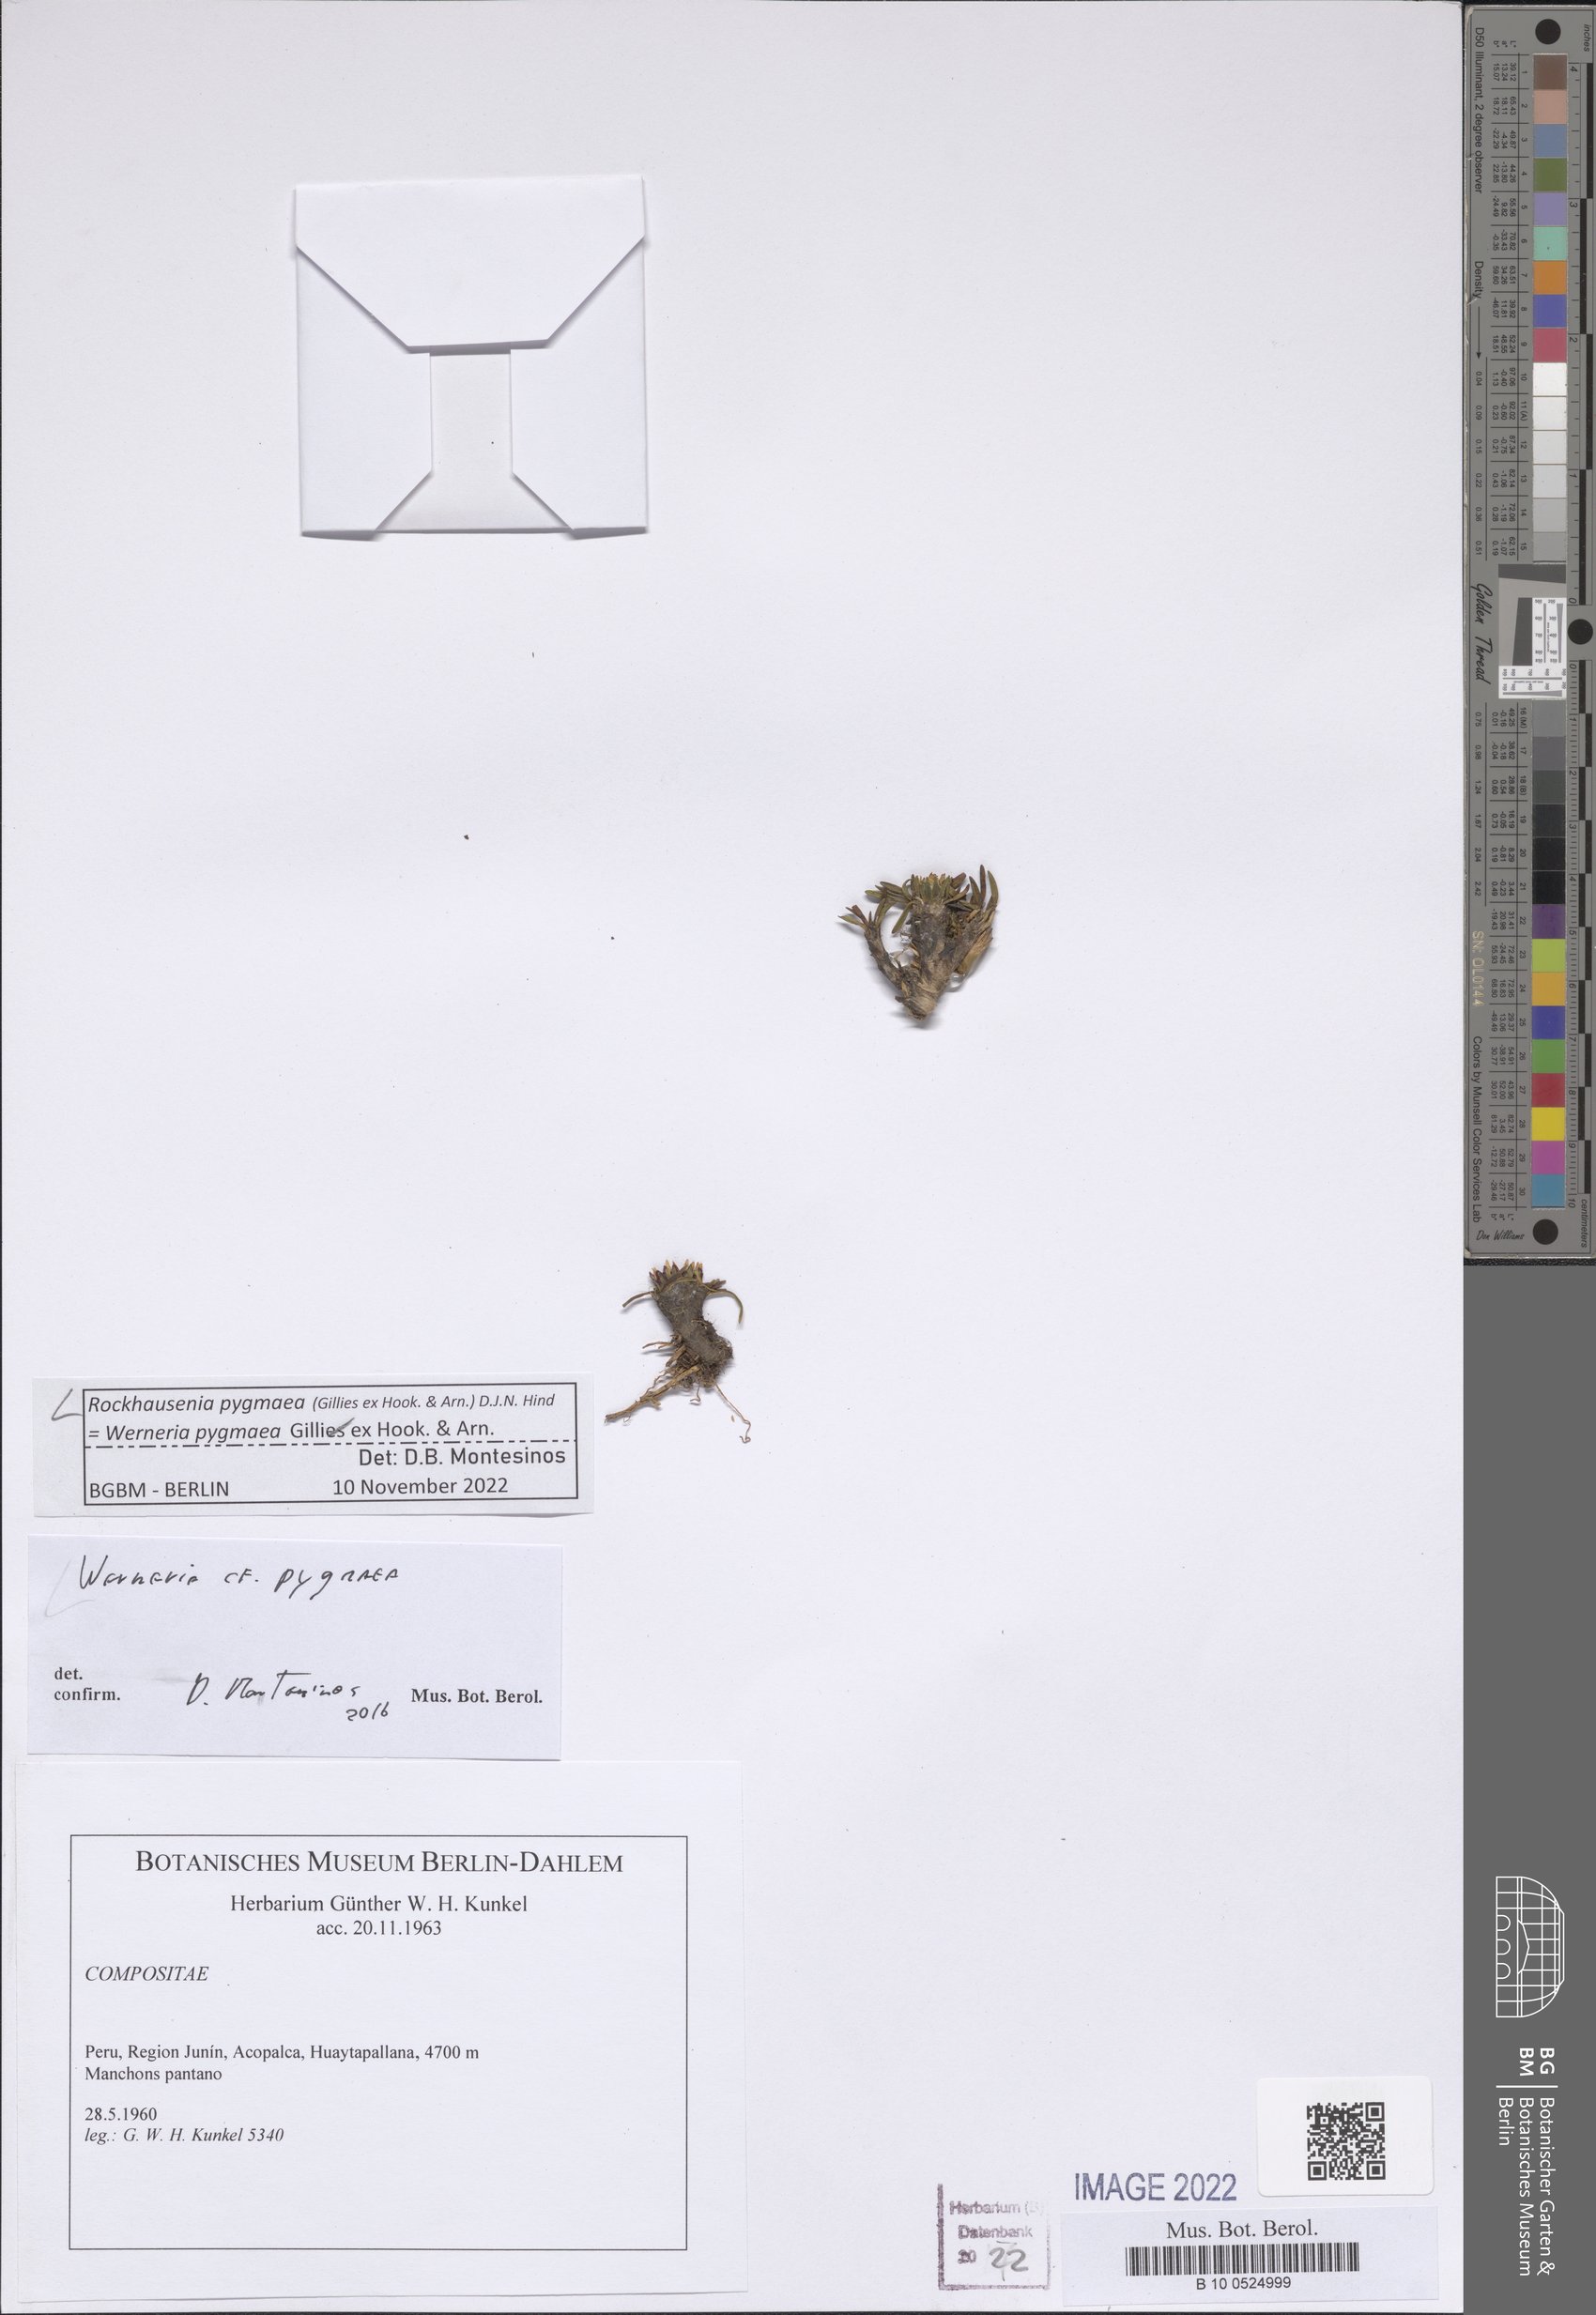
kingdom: Plantae
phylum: Tracheophyta
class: Magnoliopsida
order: Asterales
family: Asteraceae
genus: Rockhausenia
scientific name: Rockhausenia pygmaea
